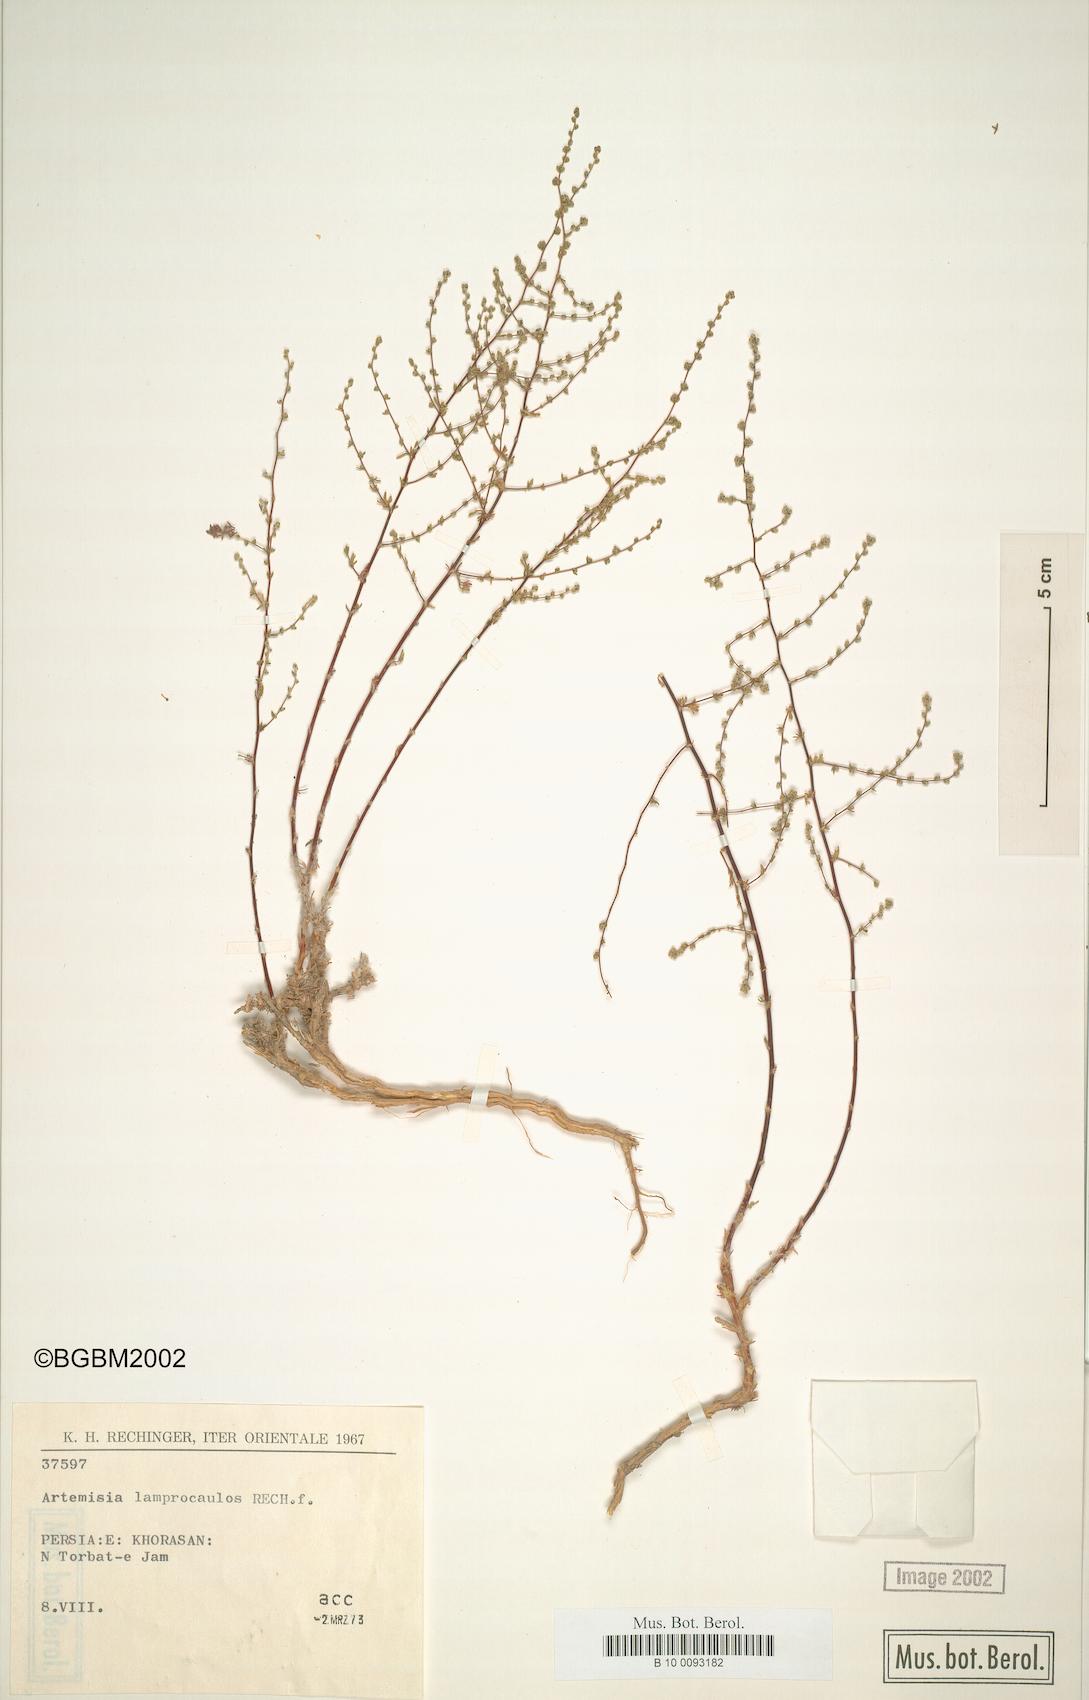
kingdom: Plantae
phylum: Tracheophyta
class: Magnoliopsida
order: Asterales
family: Asteraceae
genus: Artemisia
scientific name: Artemisia turanica
